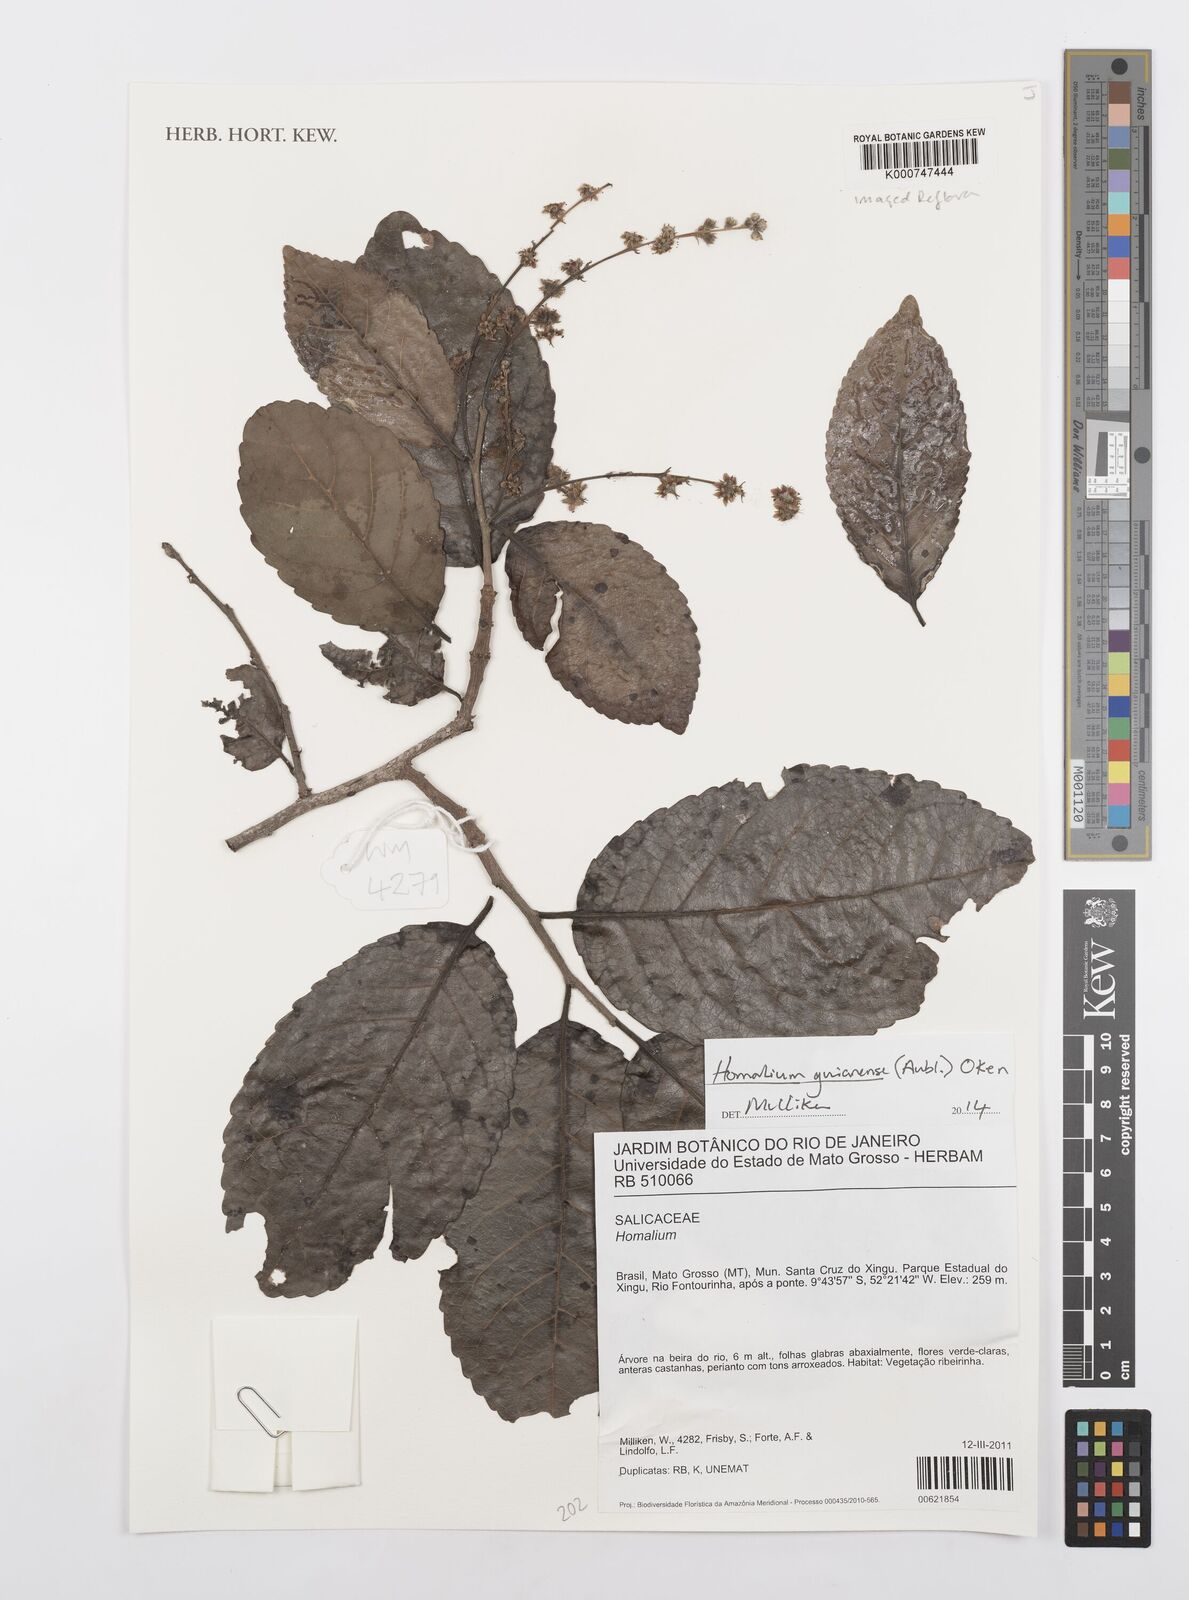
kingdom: Plantae
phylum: Tracheophyta
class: Magnoliopsida
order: Malpighiales
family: Salicaceae
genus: Homalium
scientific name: Homalium guianense
